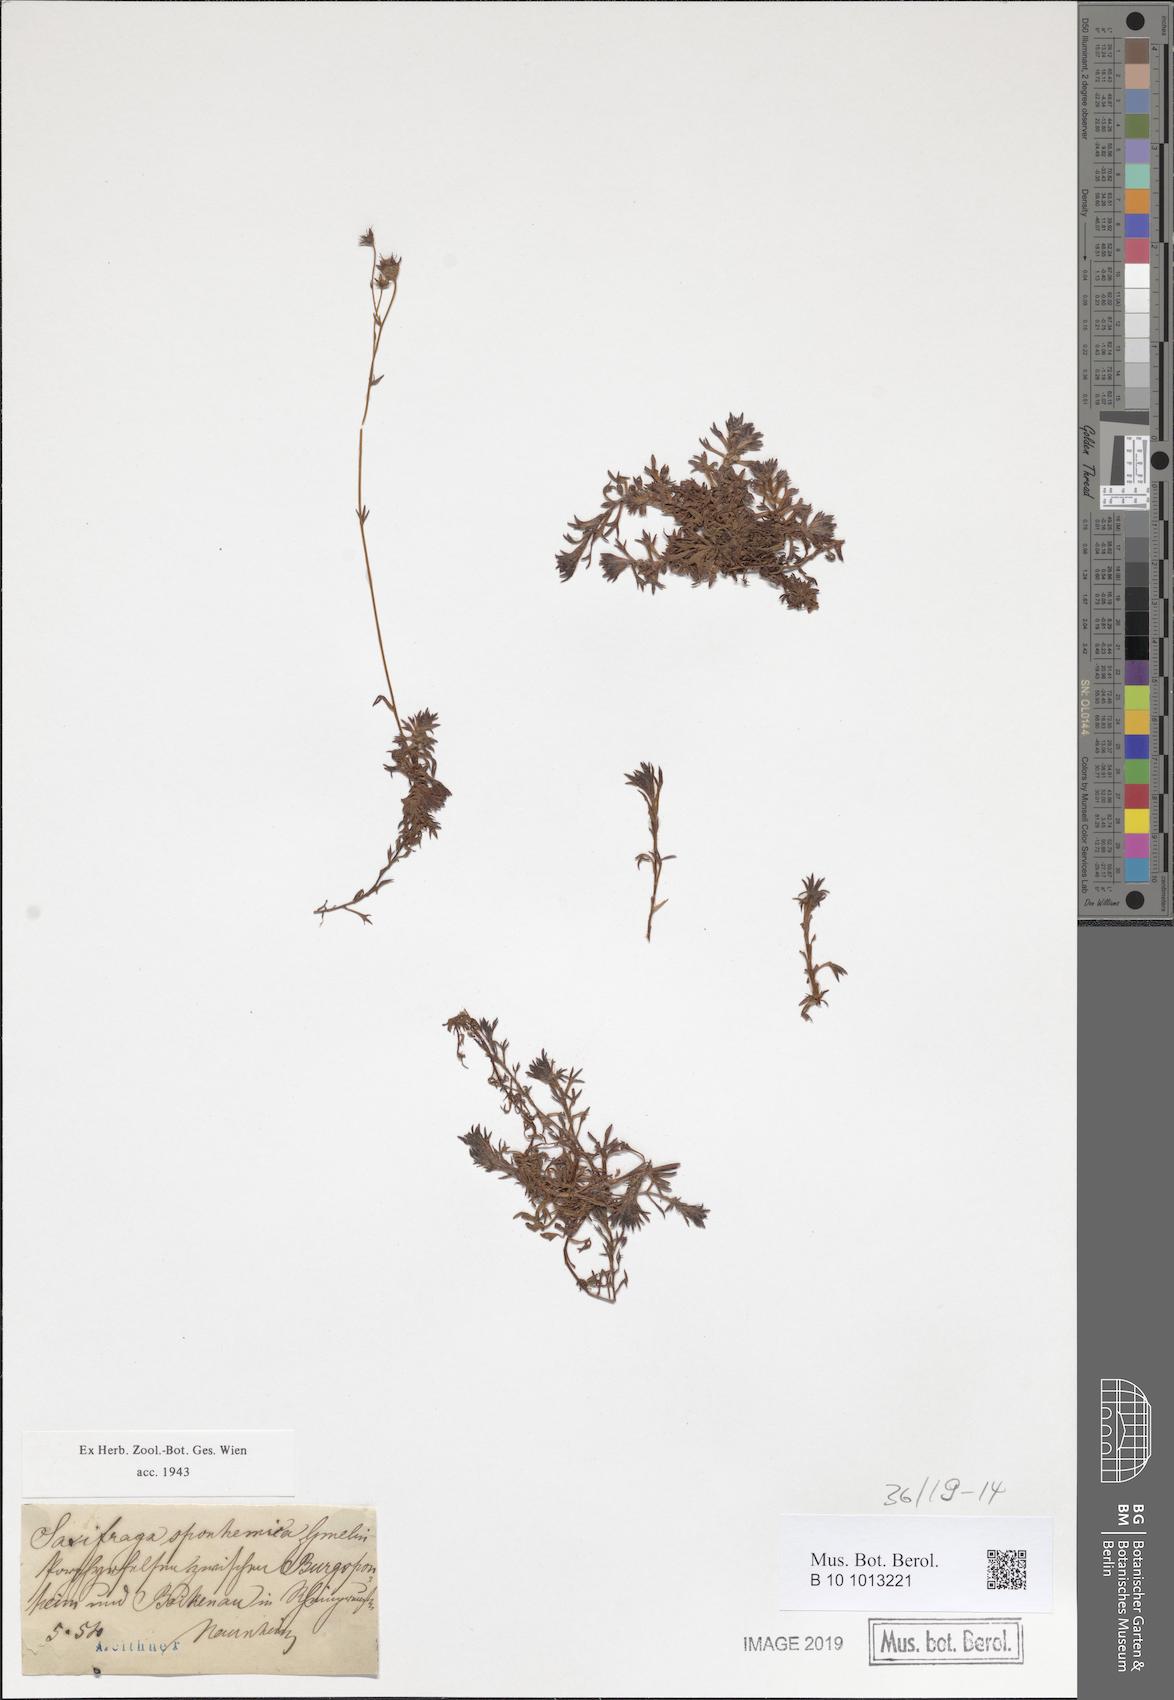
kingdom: Plantae
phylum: Tracheophyta
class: Magnoliopsida
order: Saxifragales
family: Saxifragaceae
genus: Saxifraga
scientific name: Saxifraga rosacea
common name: Irish saxifrage
